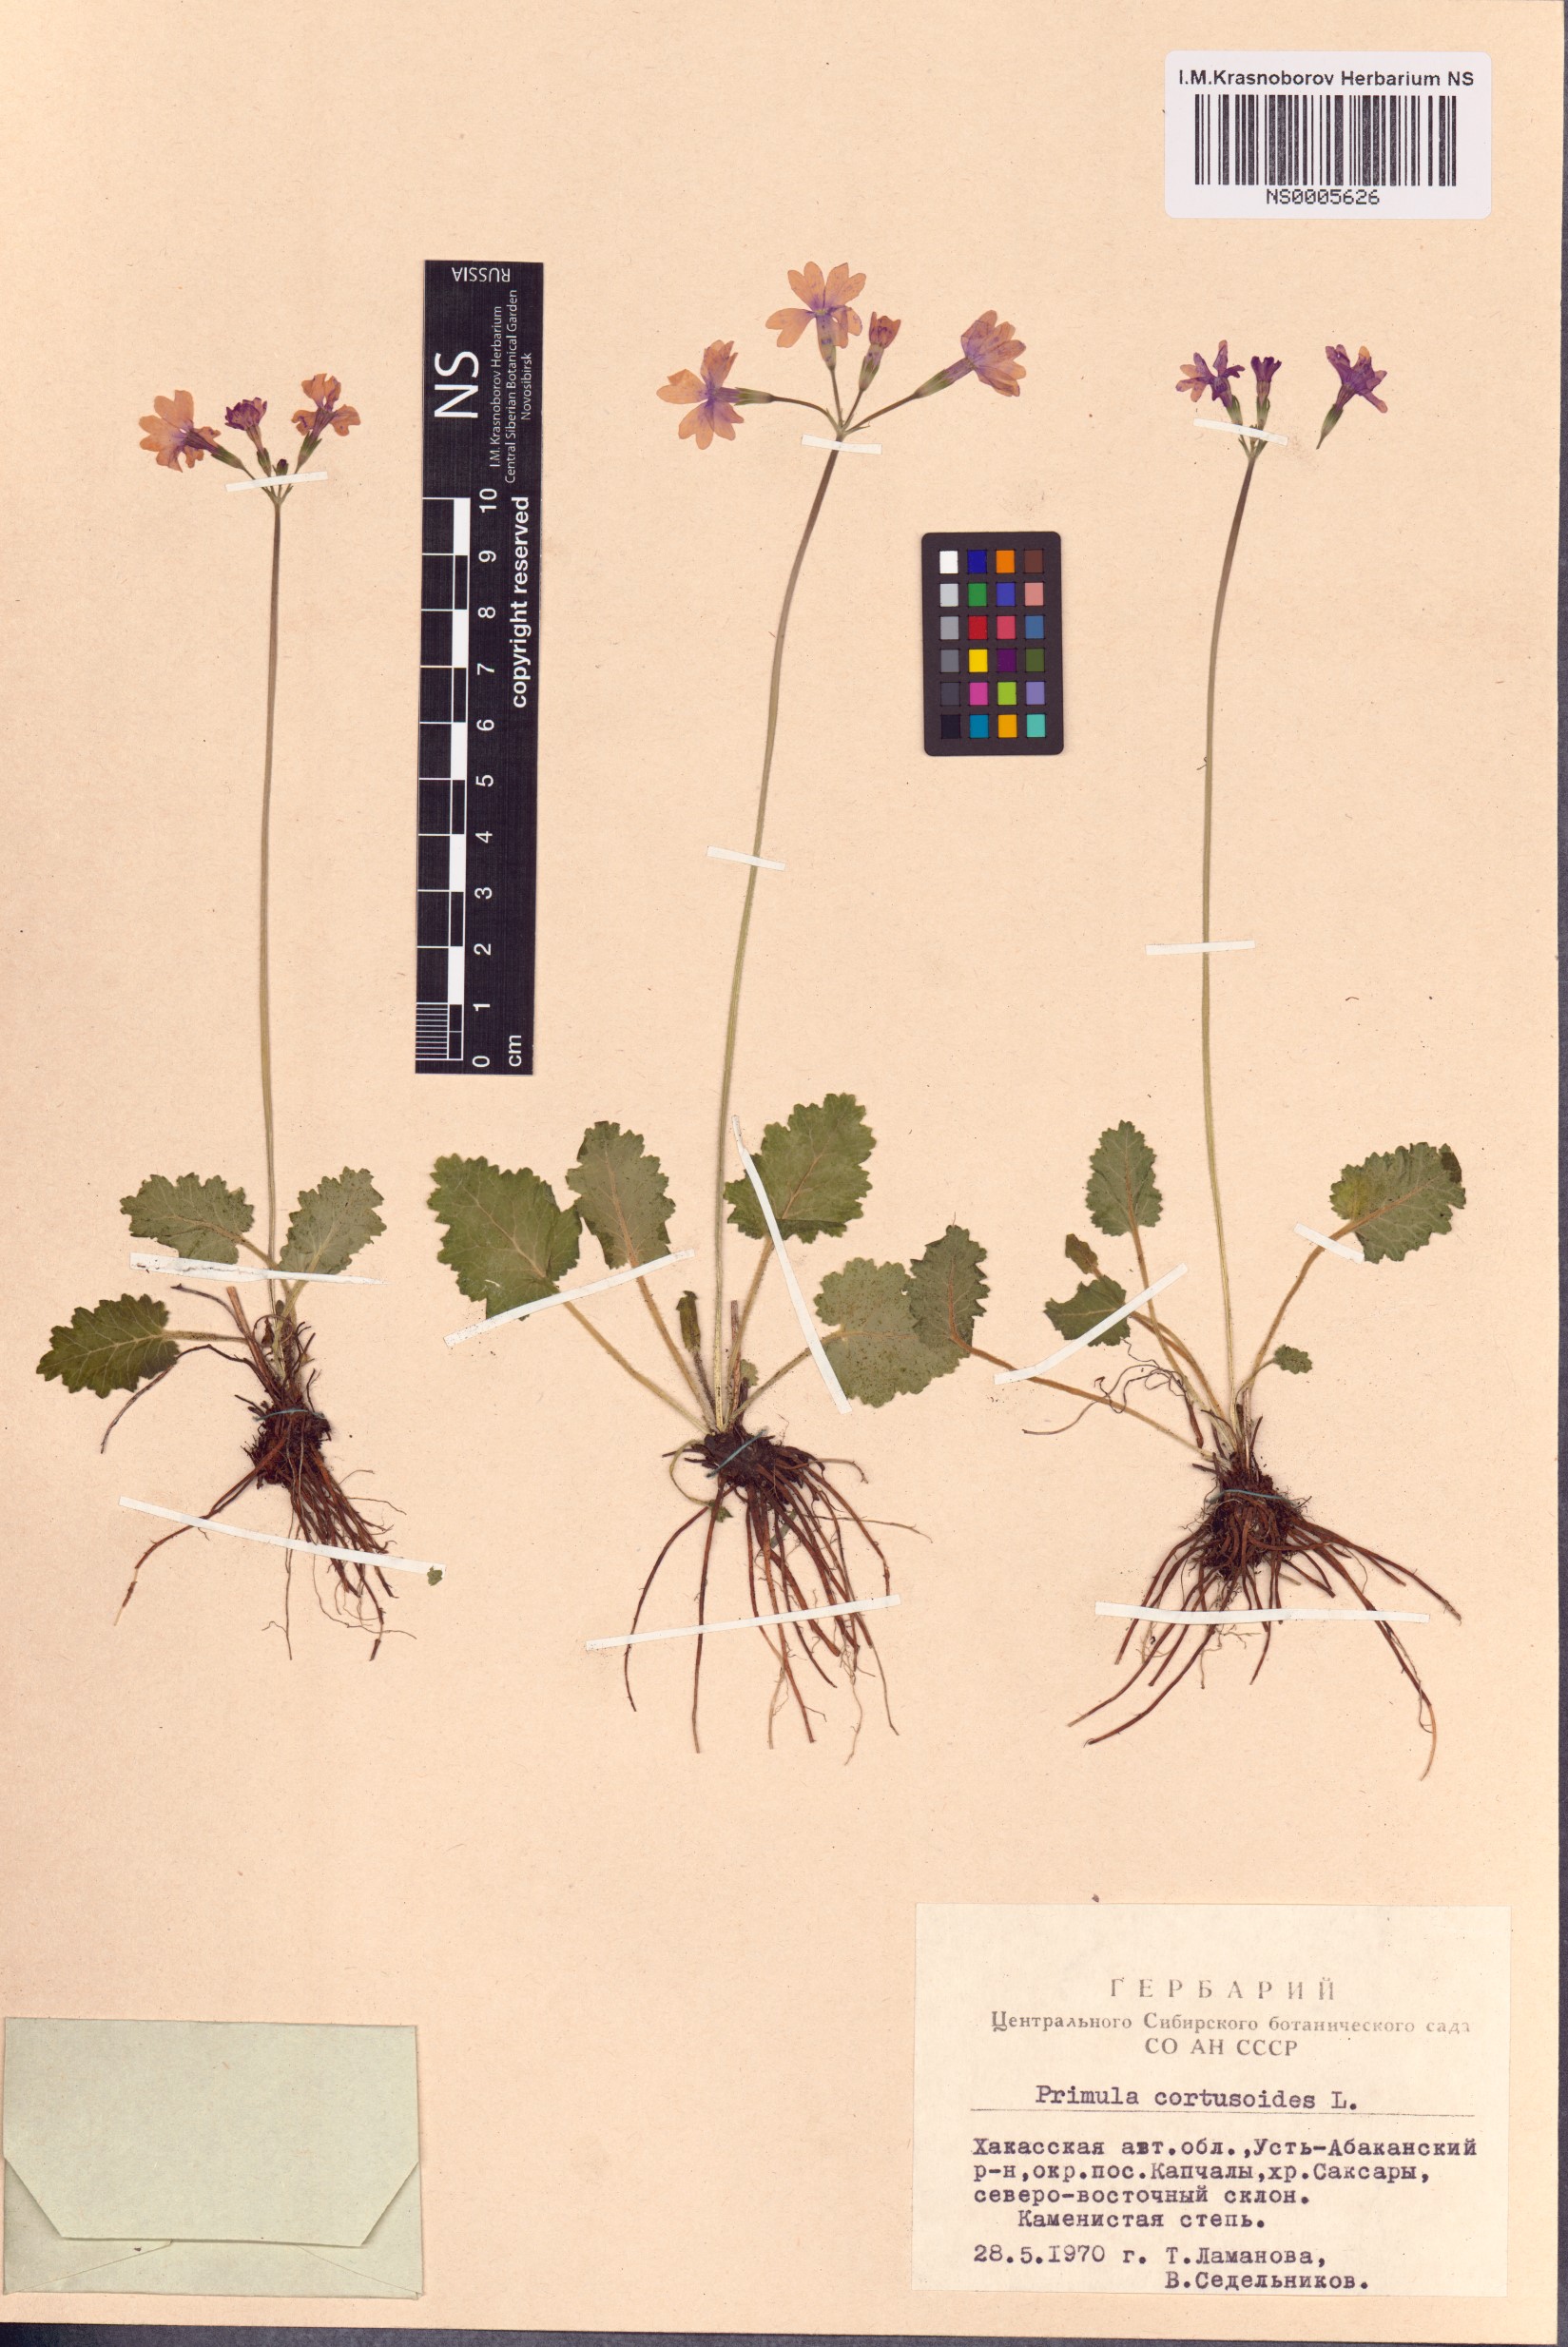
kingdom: Plantae
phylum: Tracheophyta
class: Magnoliopsida
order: Ericales
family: Primulaceae
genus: Primula
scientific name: Primula cortusoides
